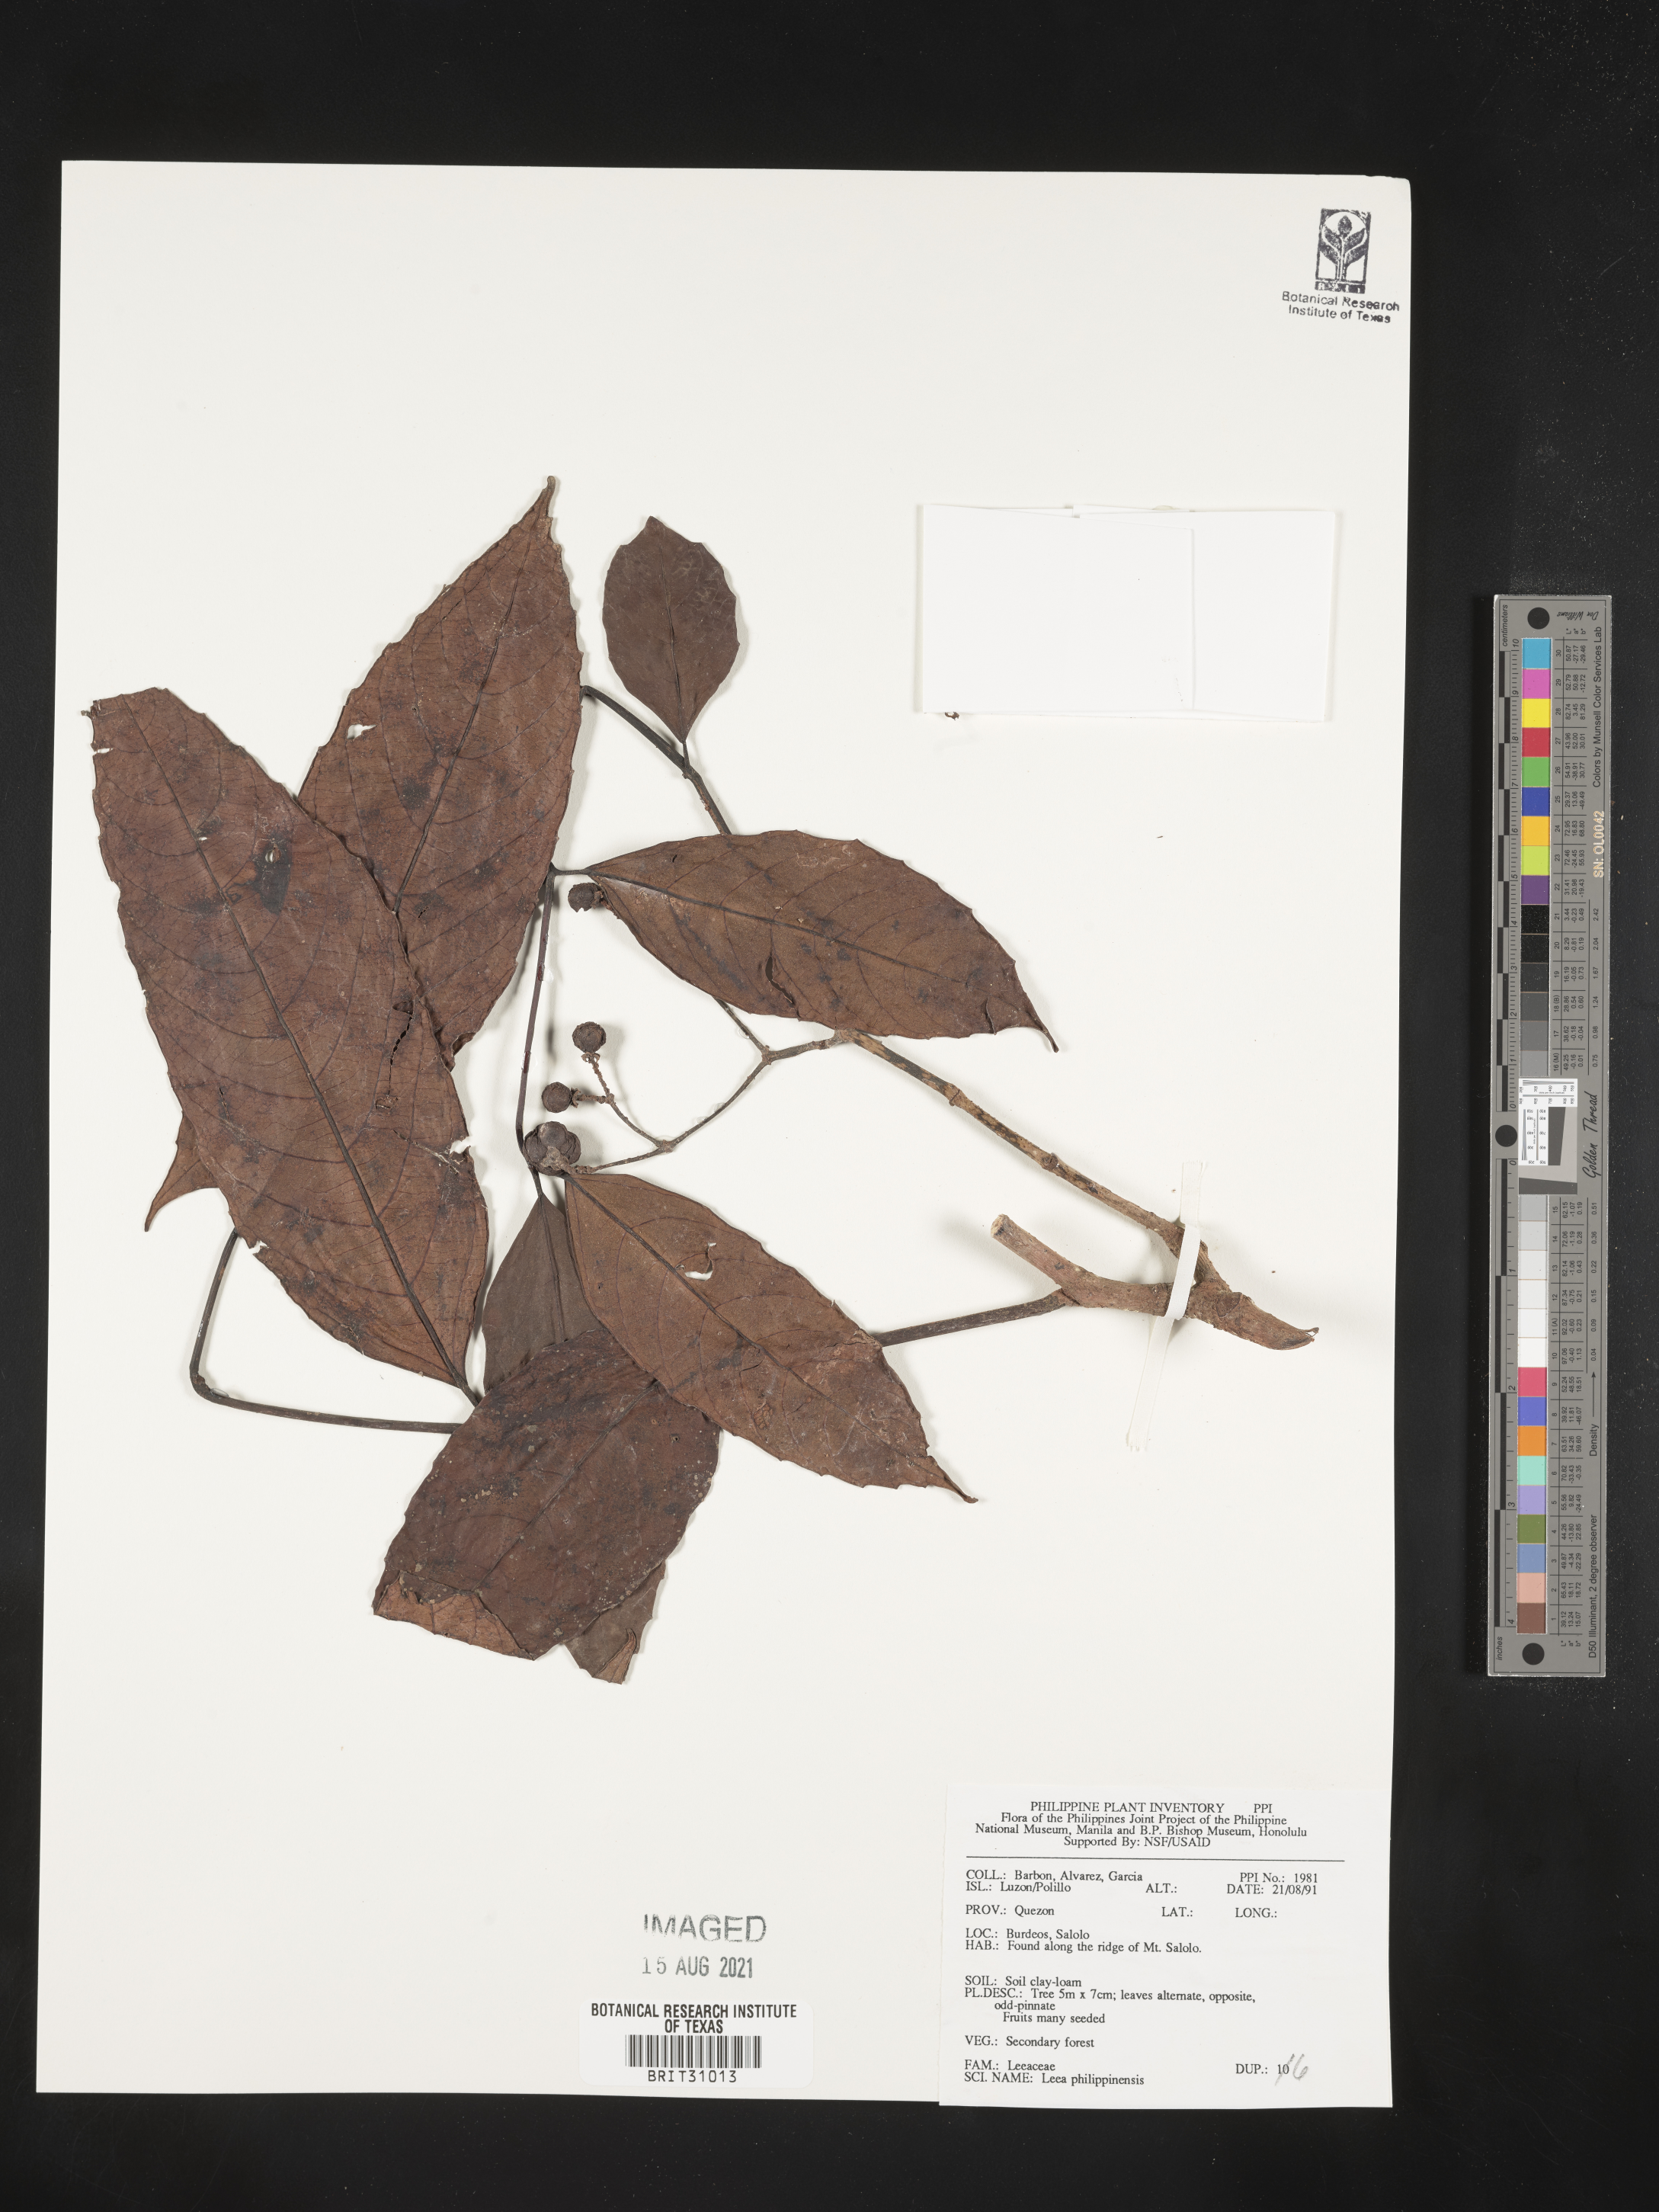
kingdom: Plantae
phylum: Tracheophyta
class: Magnoliopsida
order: Vitales
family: Vitaceae
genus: Leea
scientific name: Leea philippinensis
